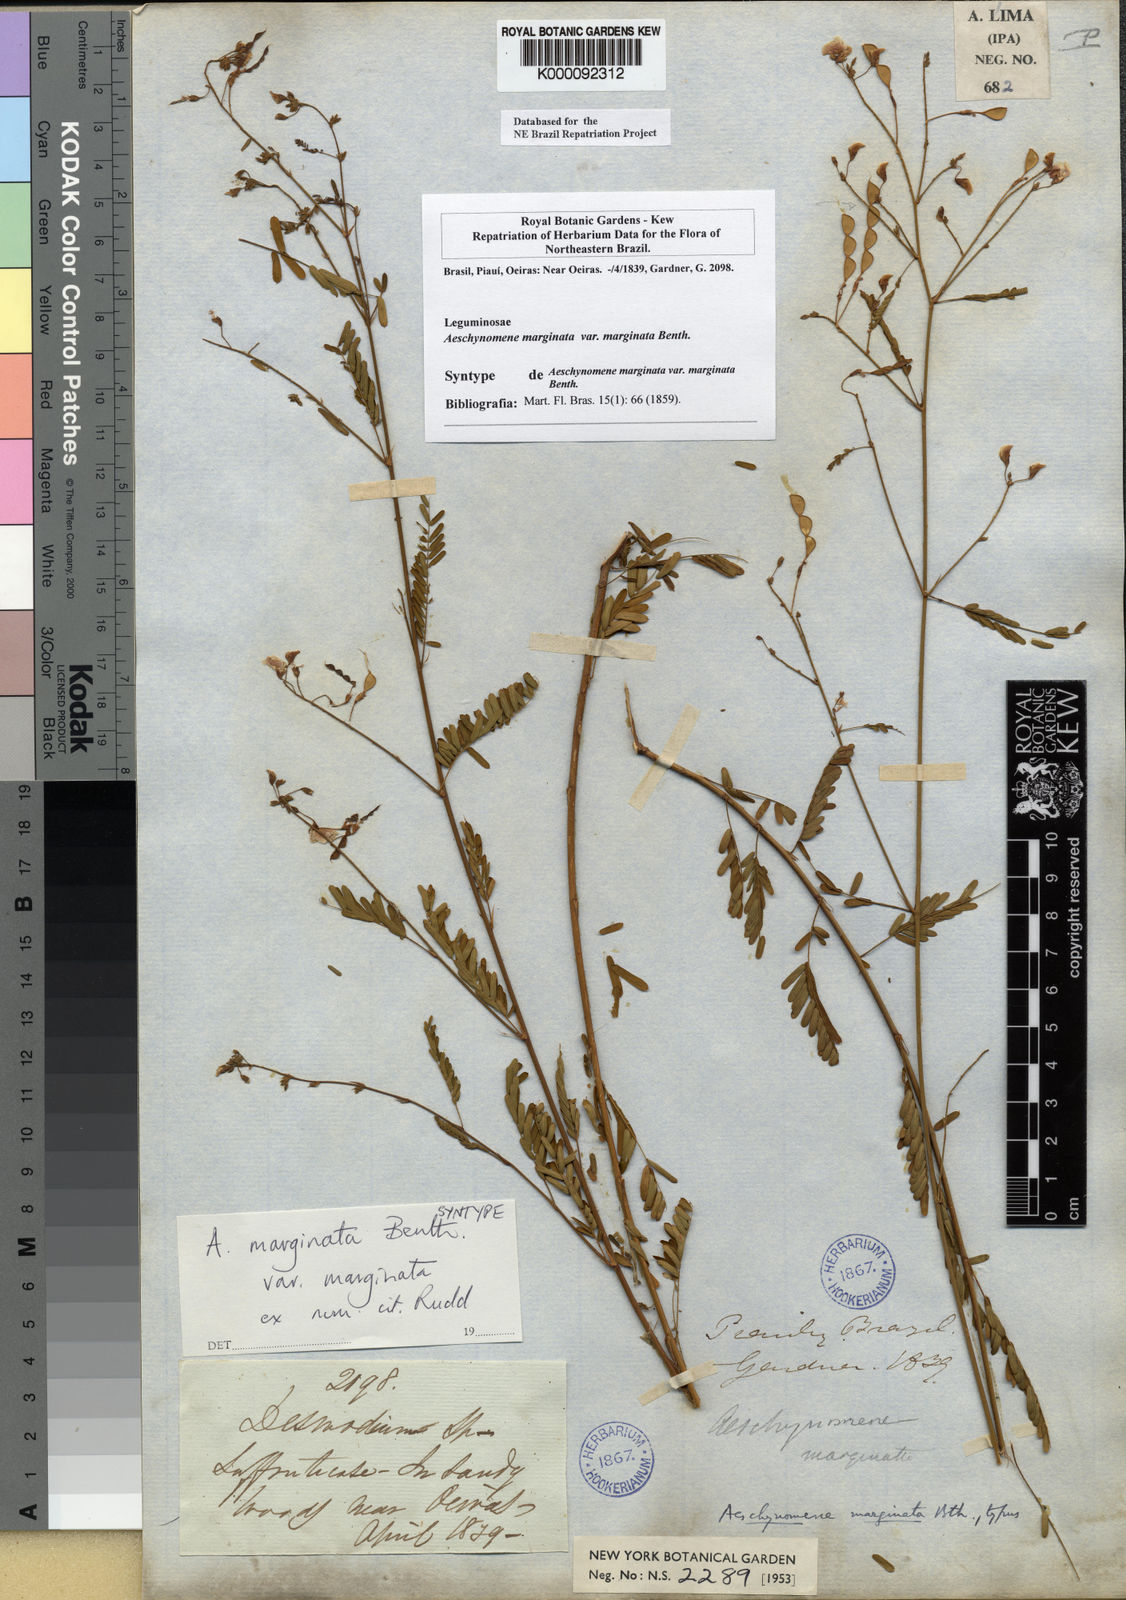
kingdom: Plantae
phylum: Tracheophyta
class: Magnoliopsida
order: Fabales
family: Fabaceae
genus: Ctenodon
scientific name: Ctenodon marginatus
